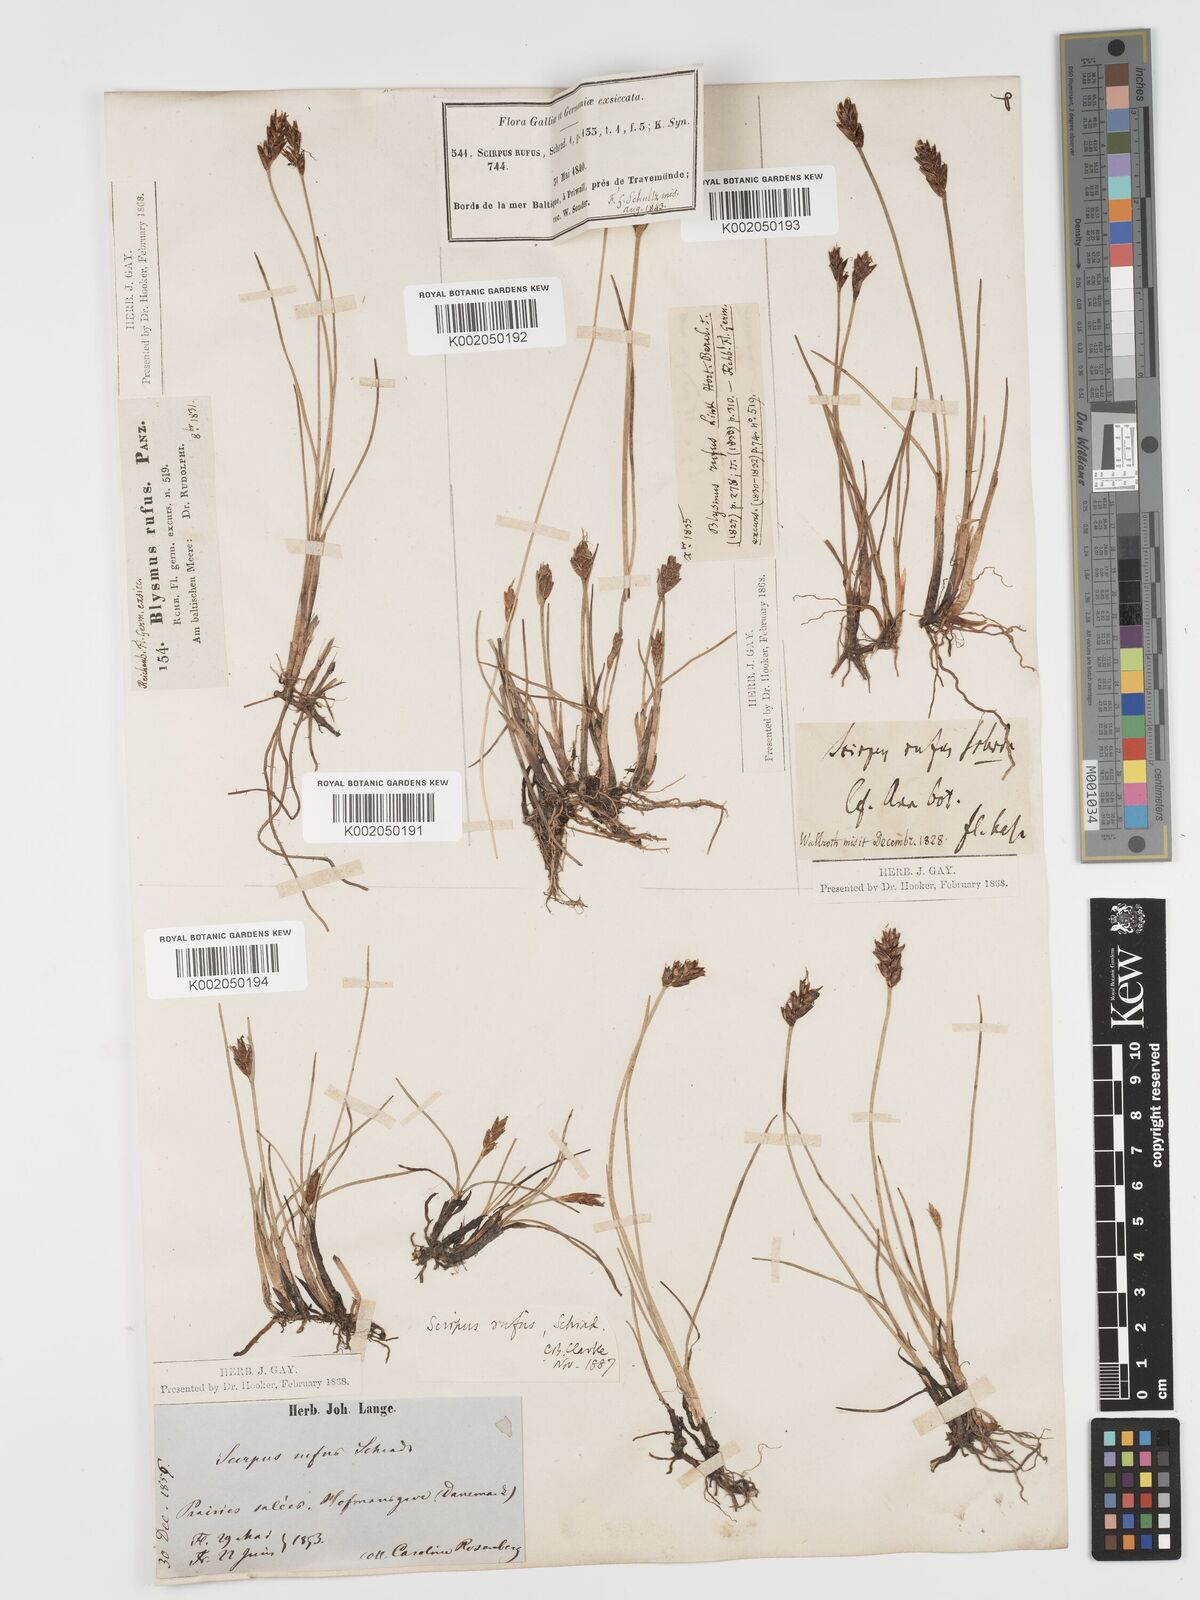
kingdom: Plantae
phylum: Tracheophyta
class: Liliopsida
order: Poales
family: Cyperaceae
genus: Blysmus
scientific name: Blysmus rufus
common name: Saltmarsh flat-sedge
